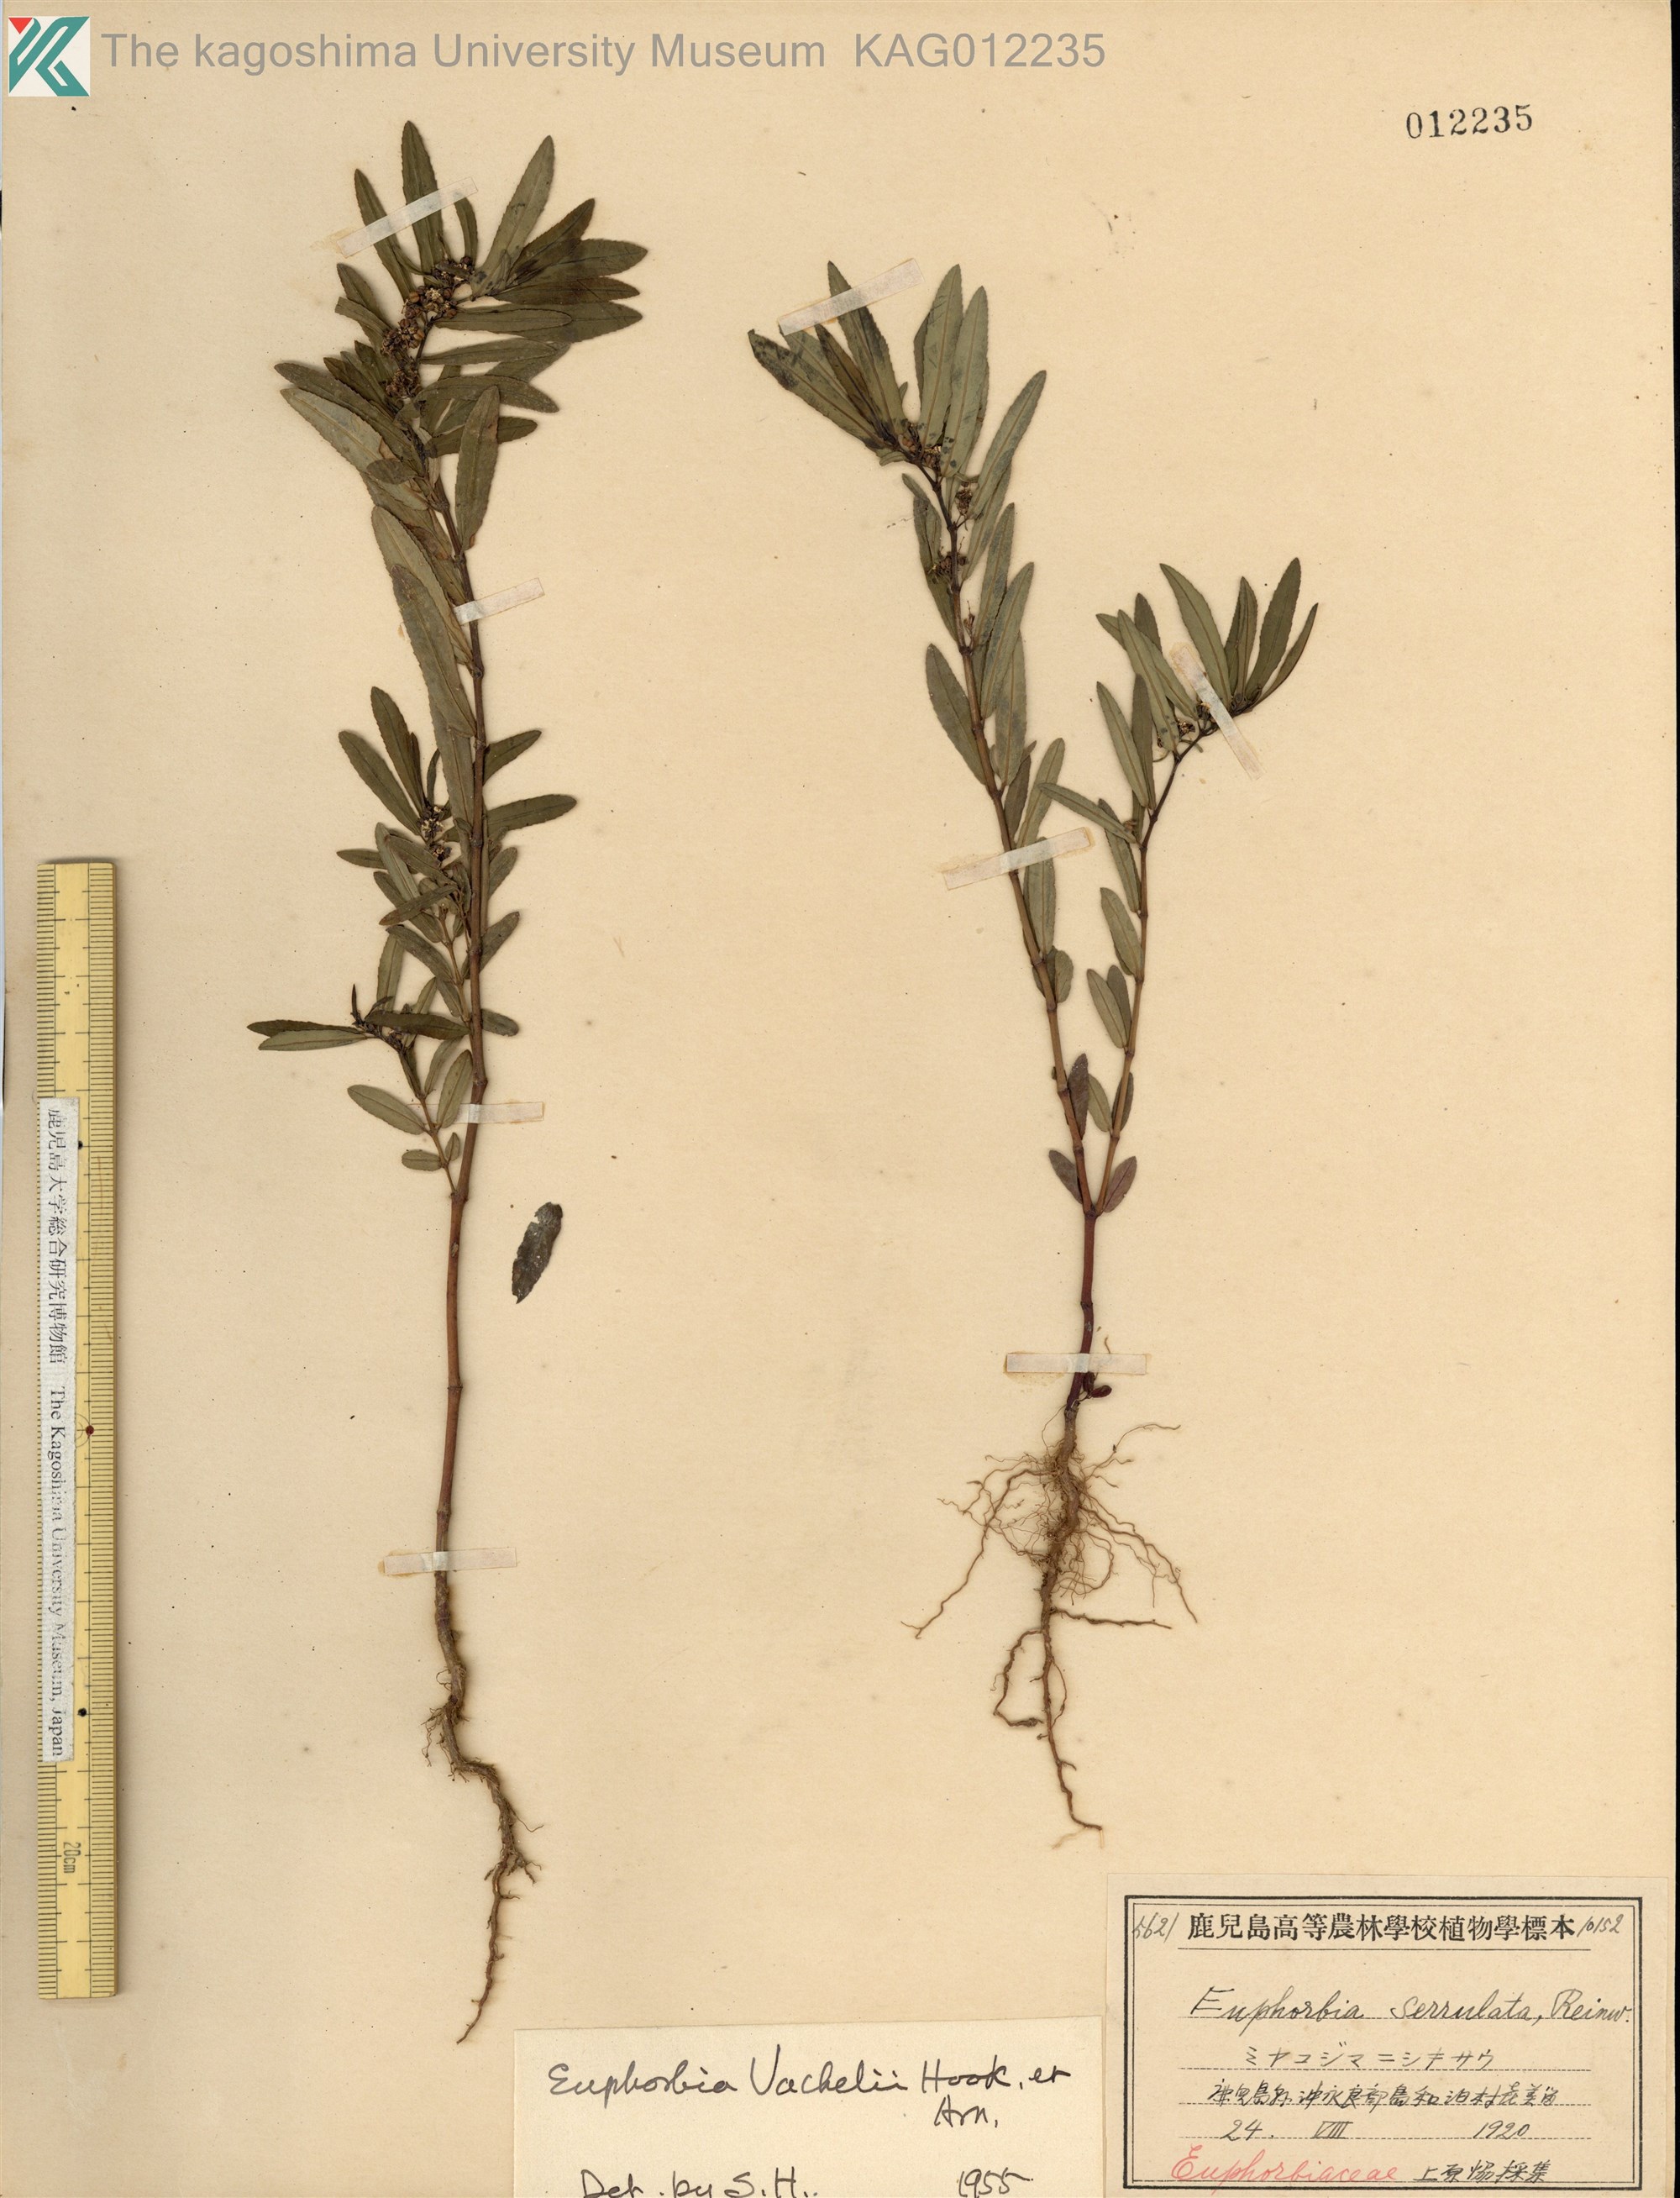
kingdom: Plantae
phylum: Tracheophyta
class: Magnoliopsida
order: Malpighiales
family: Euphorbiaceae
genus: Euphorbia
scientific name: Euphorbia bifida
